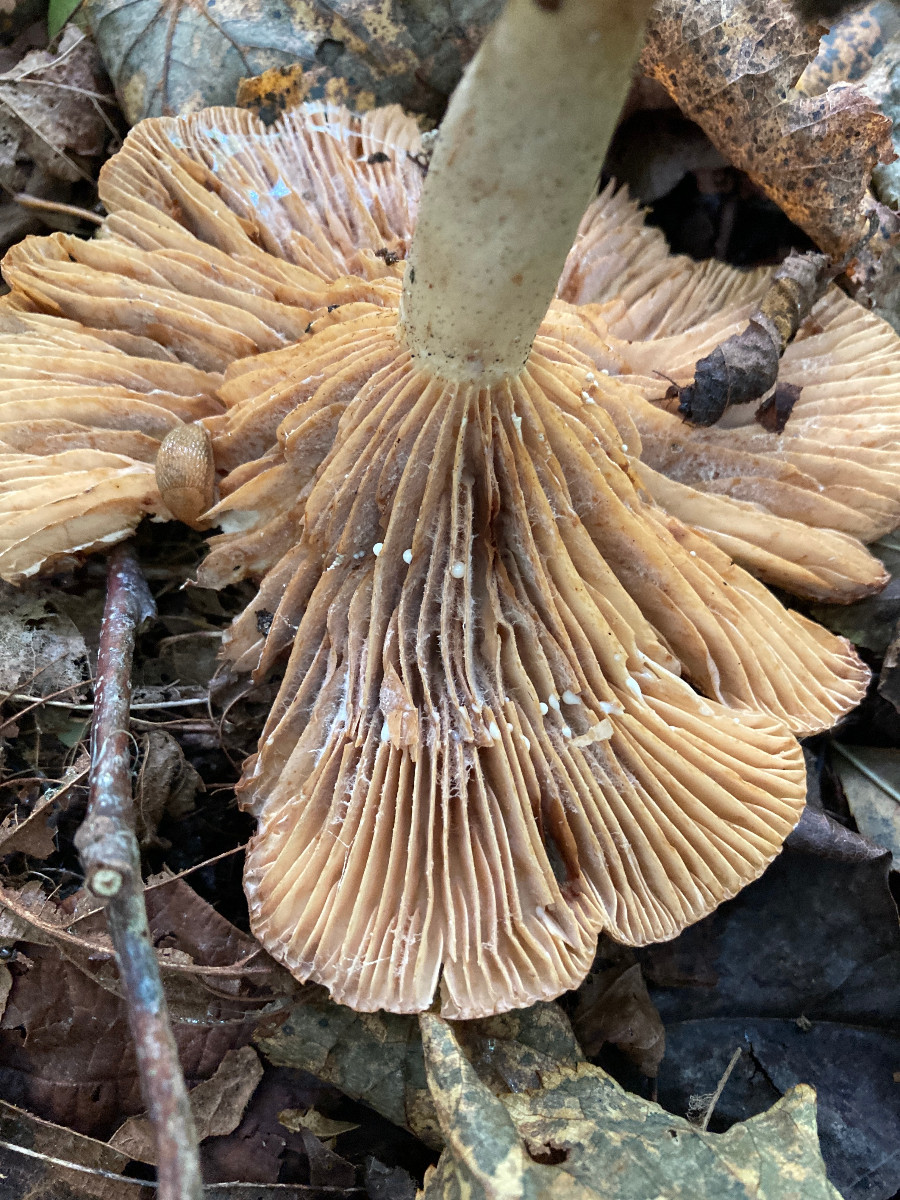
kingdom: Fungi
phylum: Basidiomycota
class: Agaricomycetes
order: Russulales
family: Russulaceae
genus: Lactarius
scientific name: Lactarius pyrogalus
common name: hassel-mælkehat
